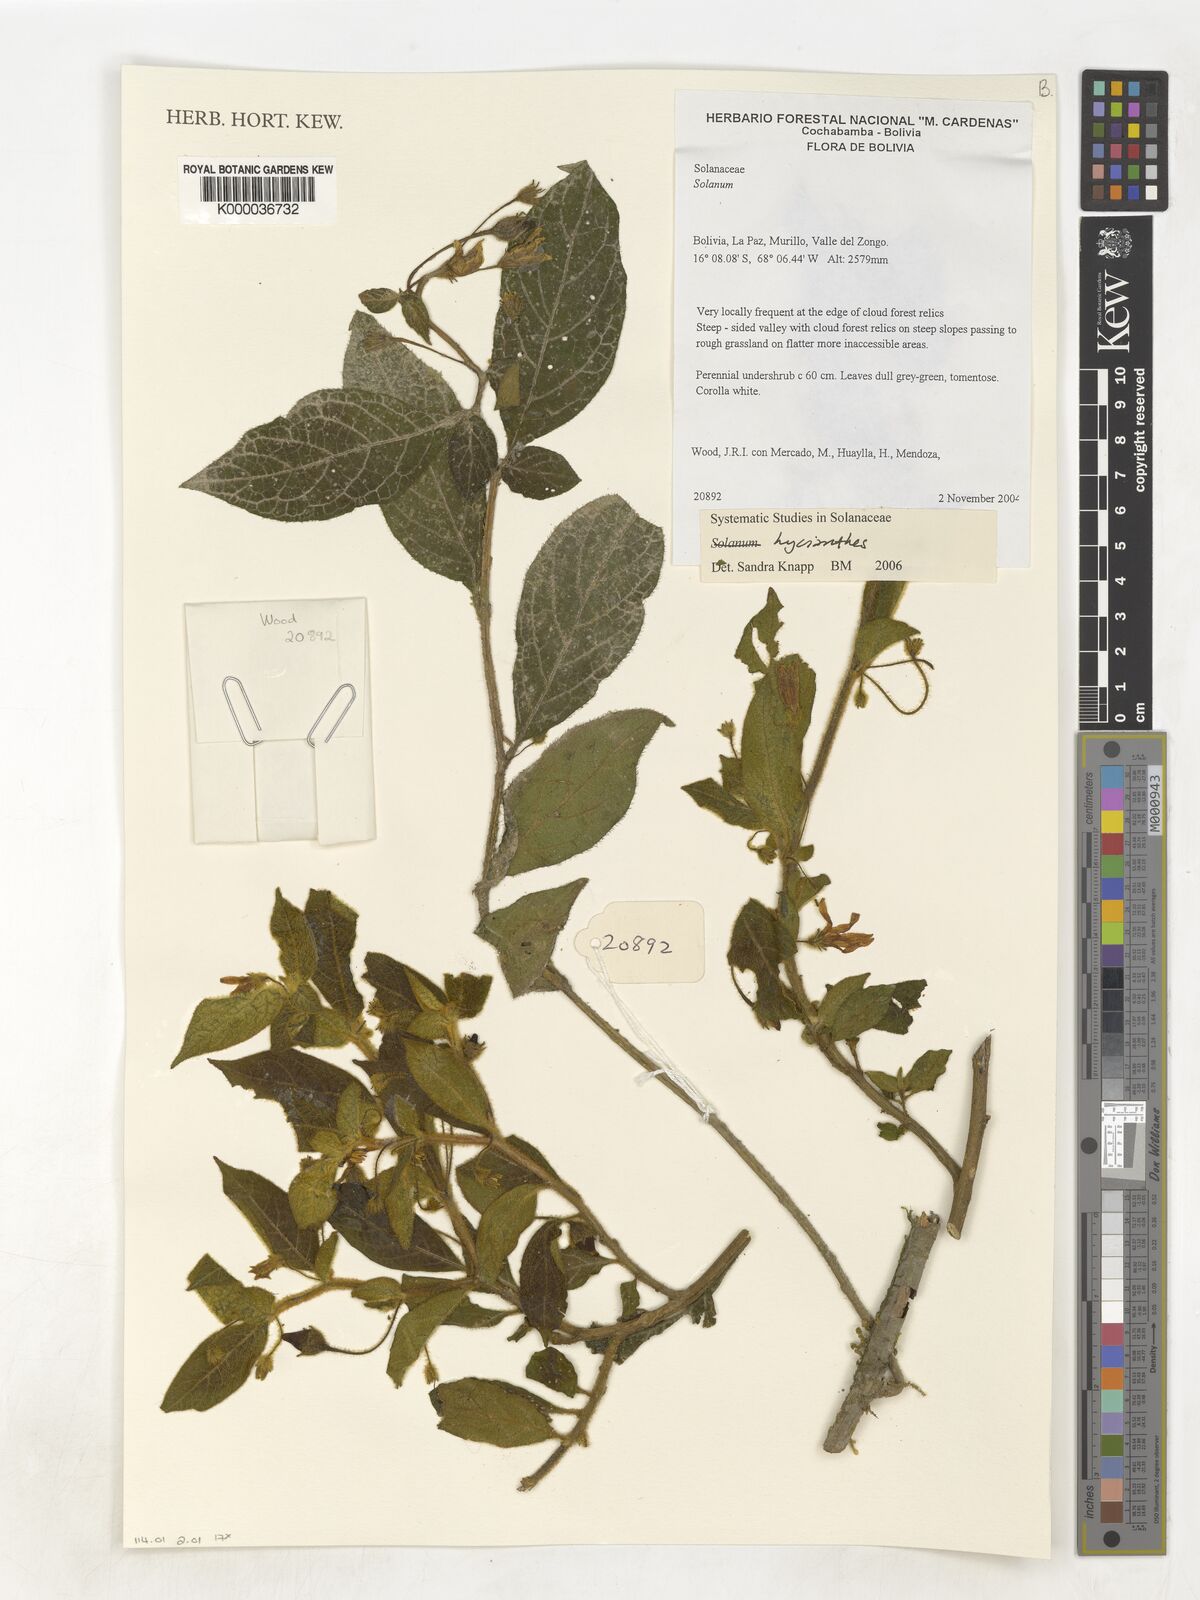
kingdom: Plantae
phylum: Tracheophyta
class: Magnoliopsida
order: Solanales
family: Solanaceae
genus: Lycianthes
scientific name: Lycianthes
